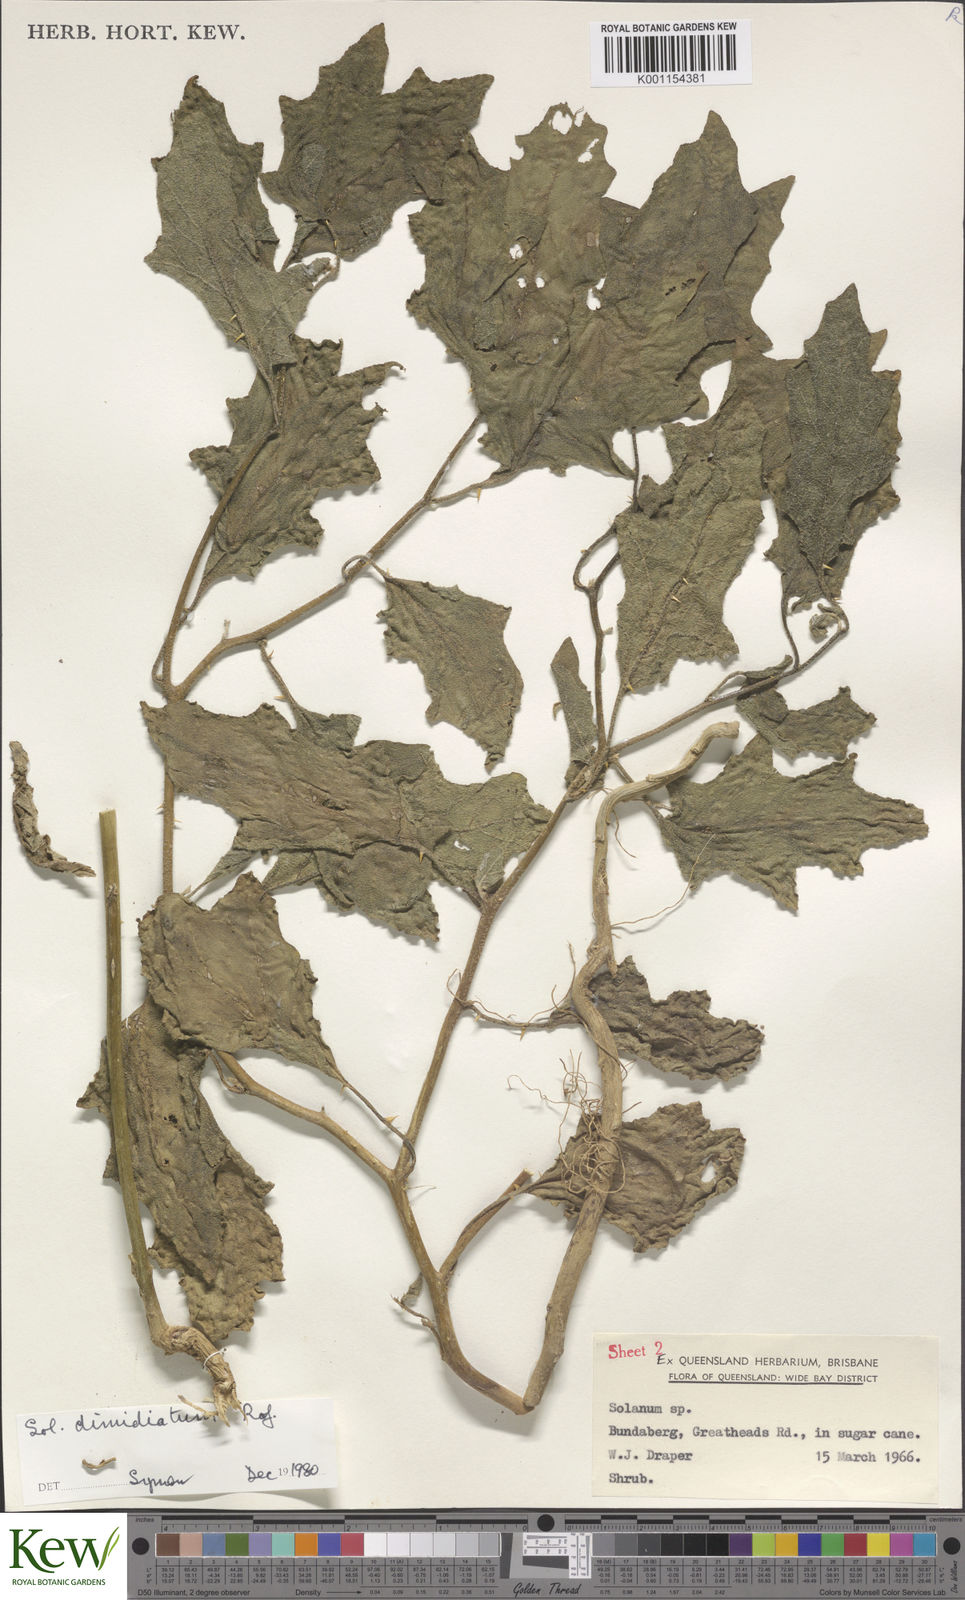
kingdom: Plantae
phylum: Tracheophyta
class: Magnoliopsida
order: Solanales
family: Solanaceae
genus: Solanum
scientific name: Solanum dimidiatum
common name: Carolina horse-nettle
